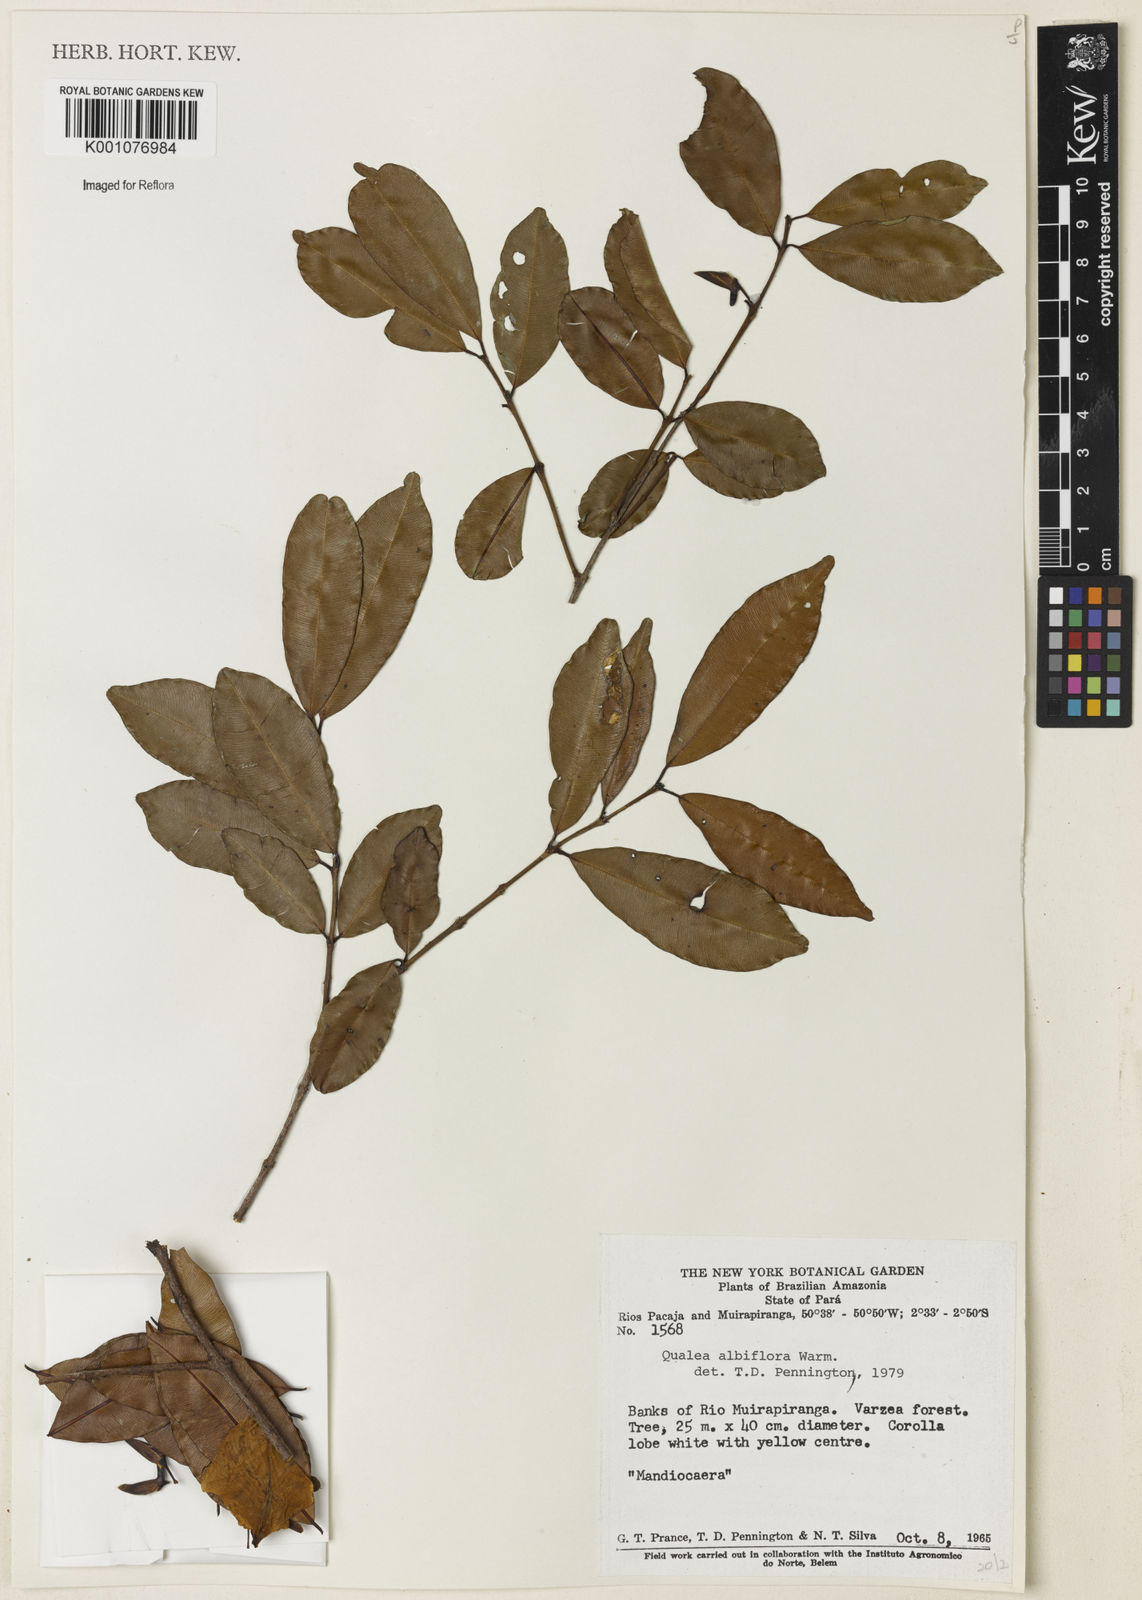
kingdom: Plantae
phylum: Tracheophyta
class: Magnoliopsida
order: Myrtales
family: Vochysiaceae
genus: Ruizterania
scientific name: Ruizterania albiflora
